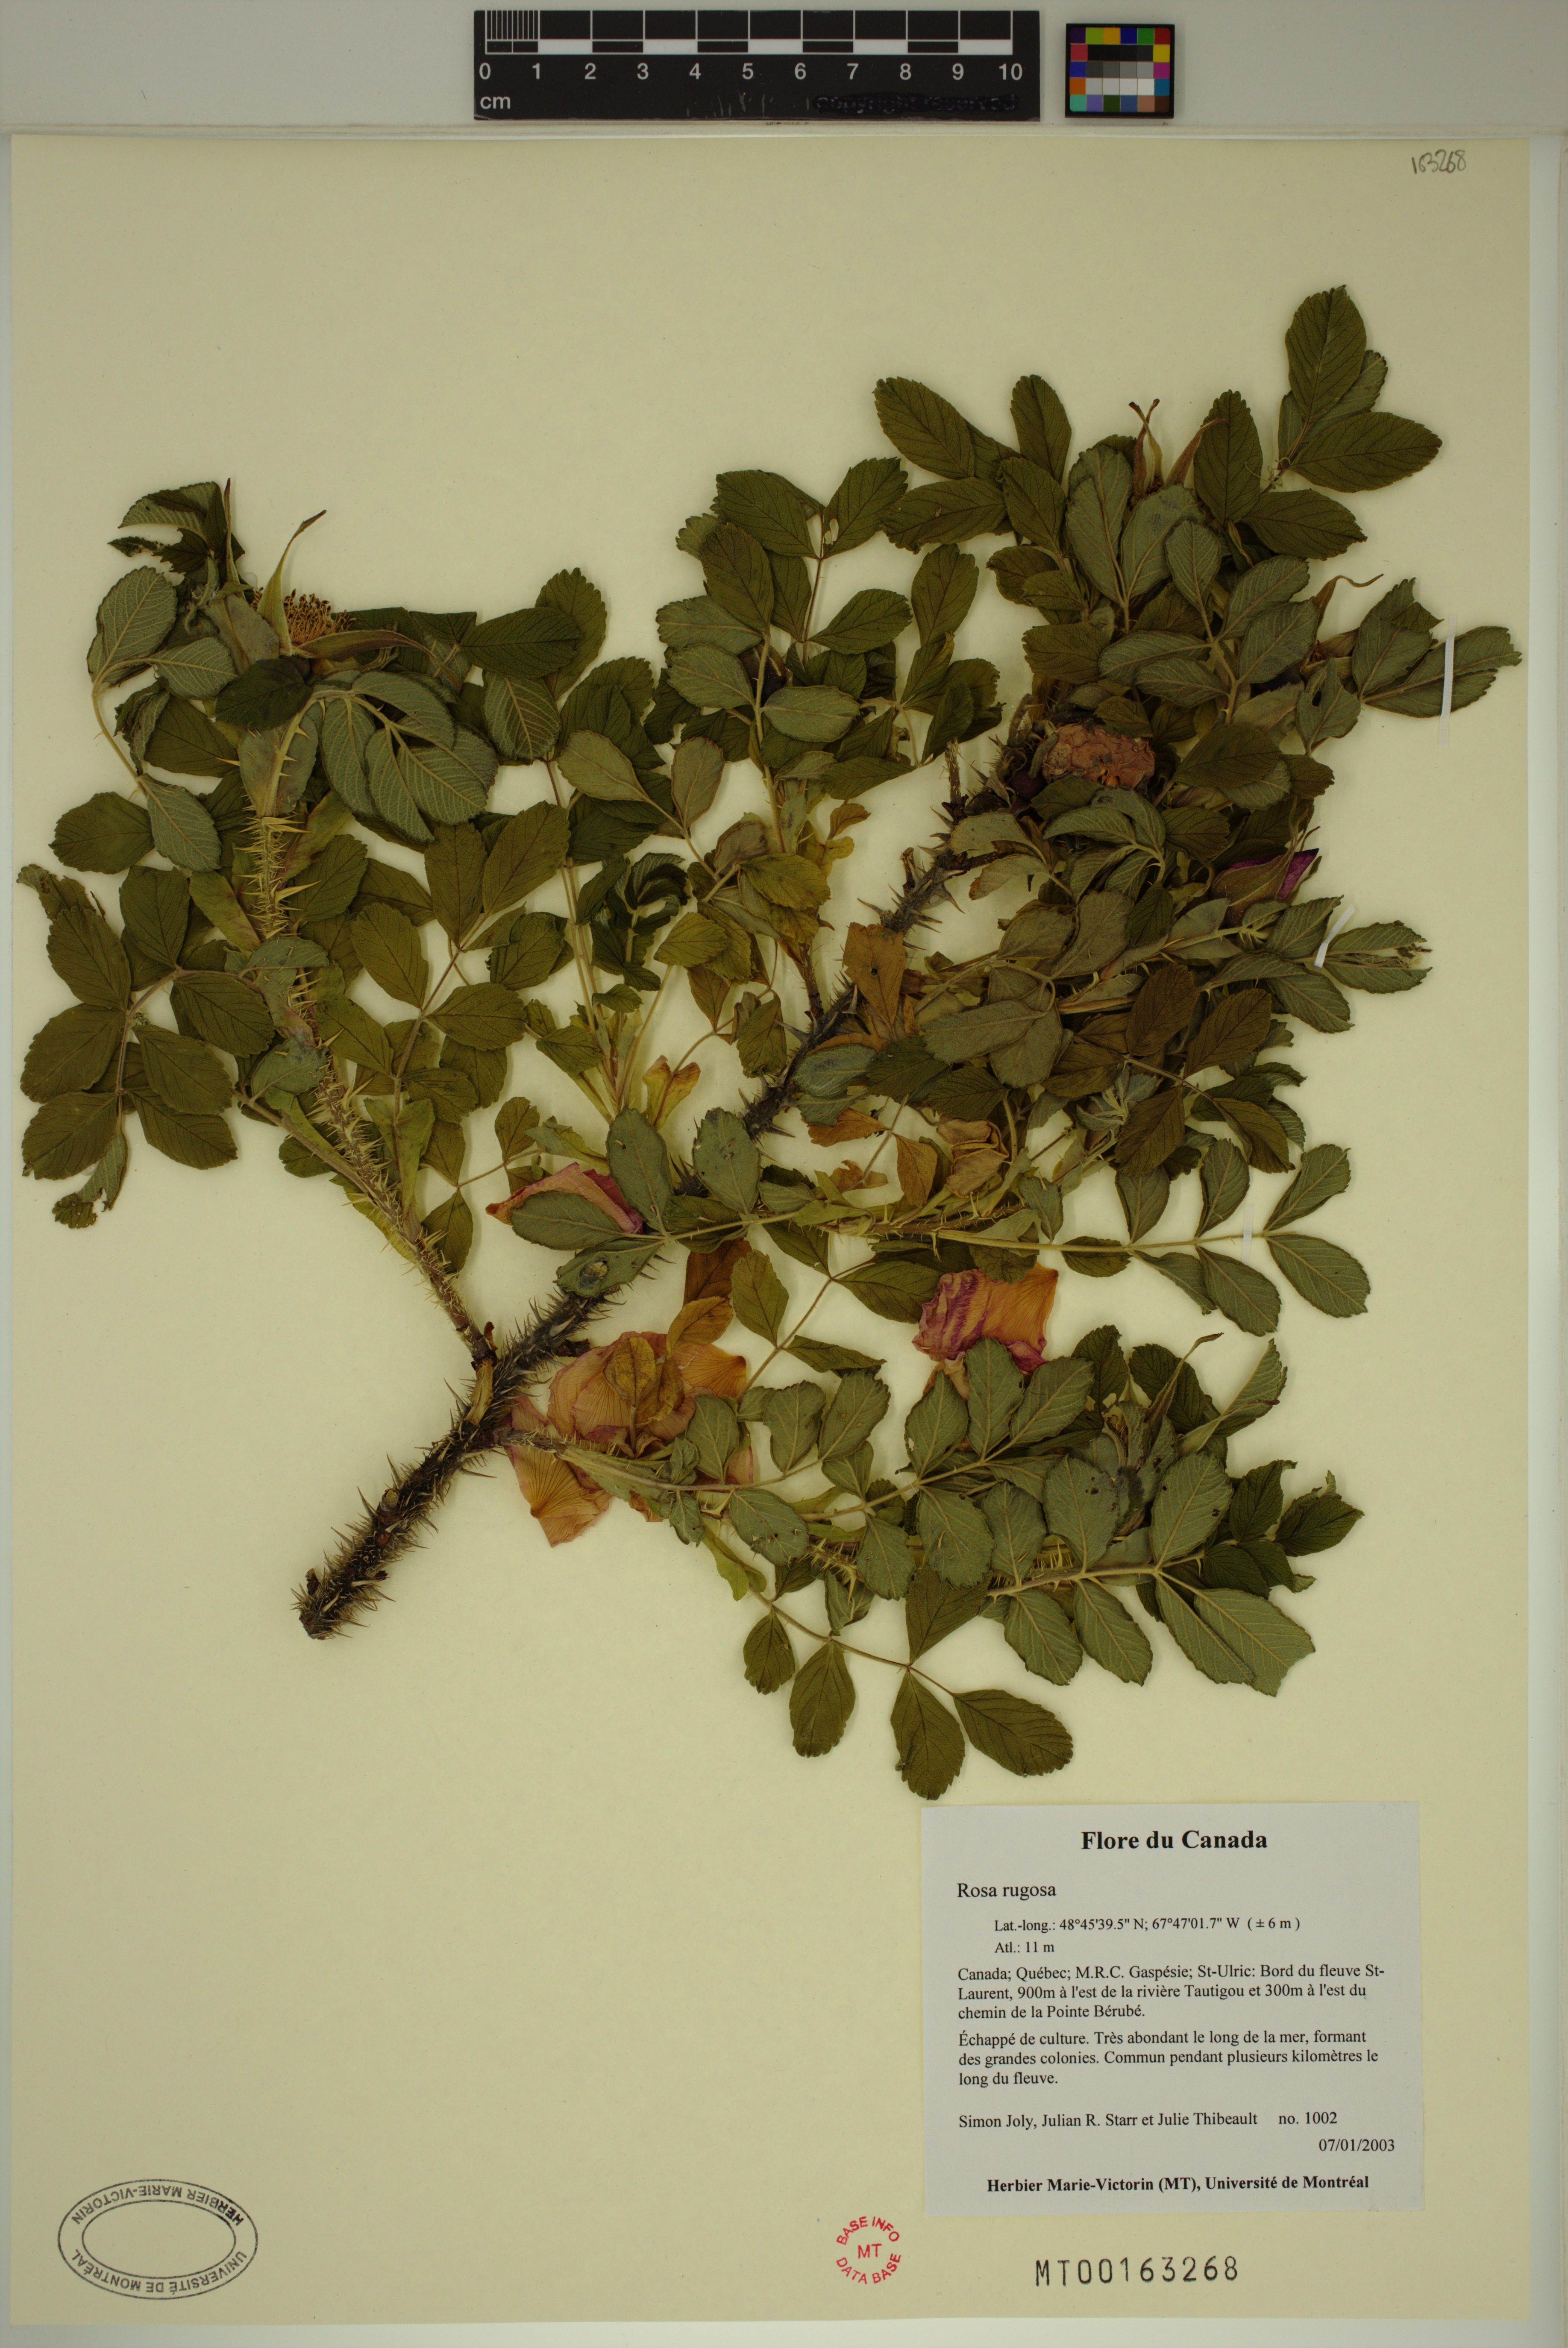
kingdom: Plantae
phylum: Tracheophyta
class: Magnoliopsida
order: Rosales
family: Rosaceae
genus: Rosa
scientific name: Rosa rugosa
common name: Japanese rose
